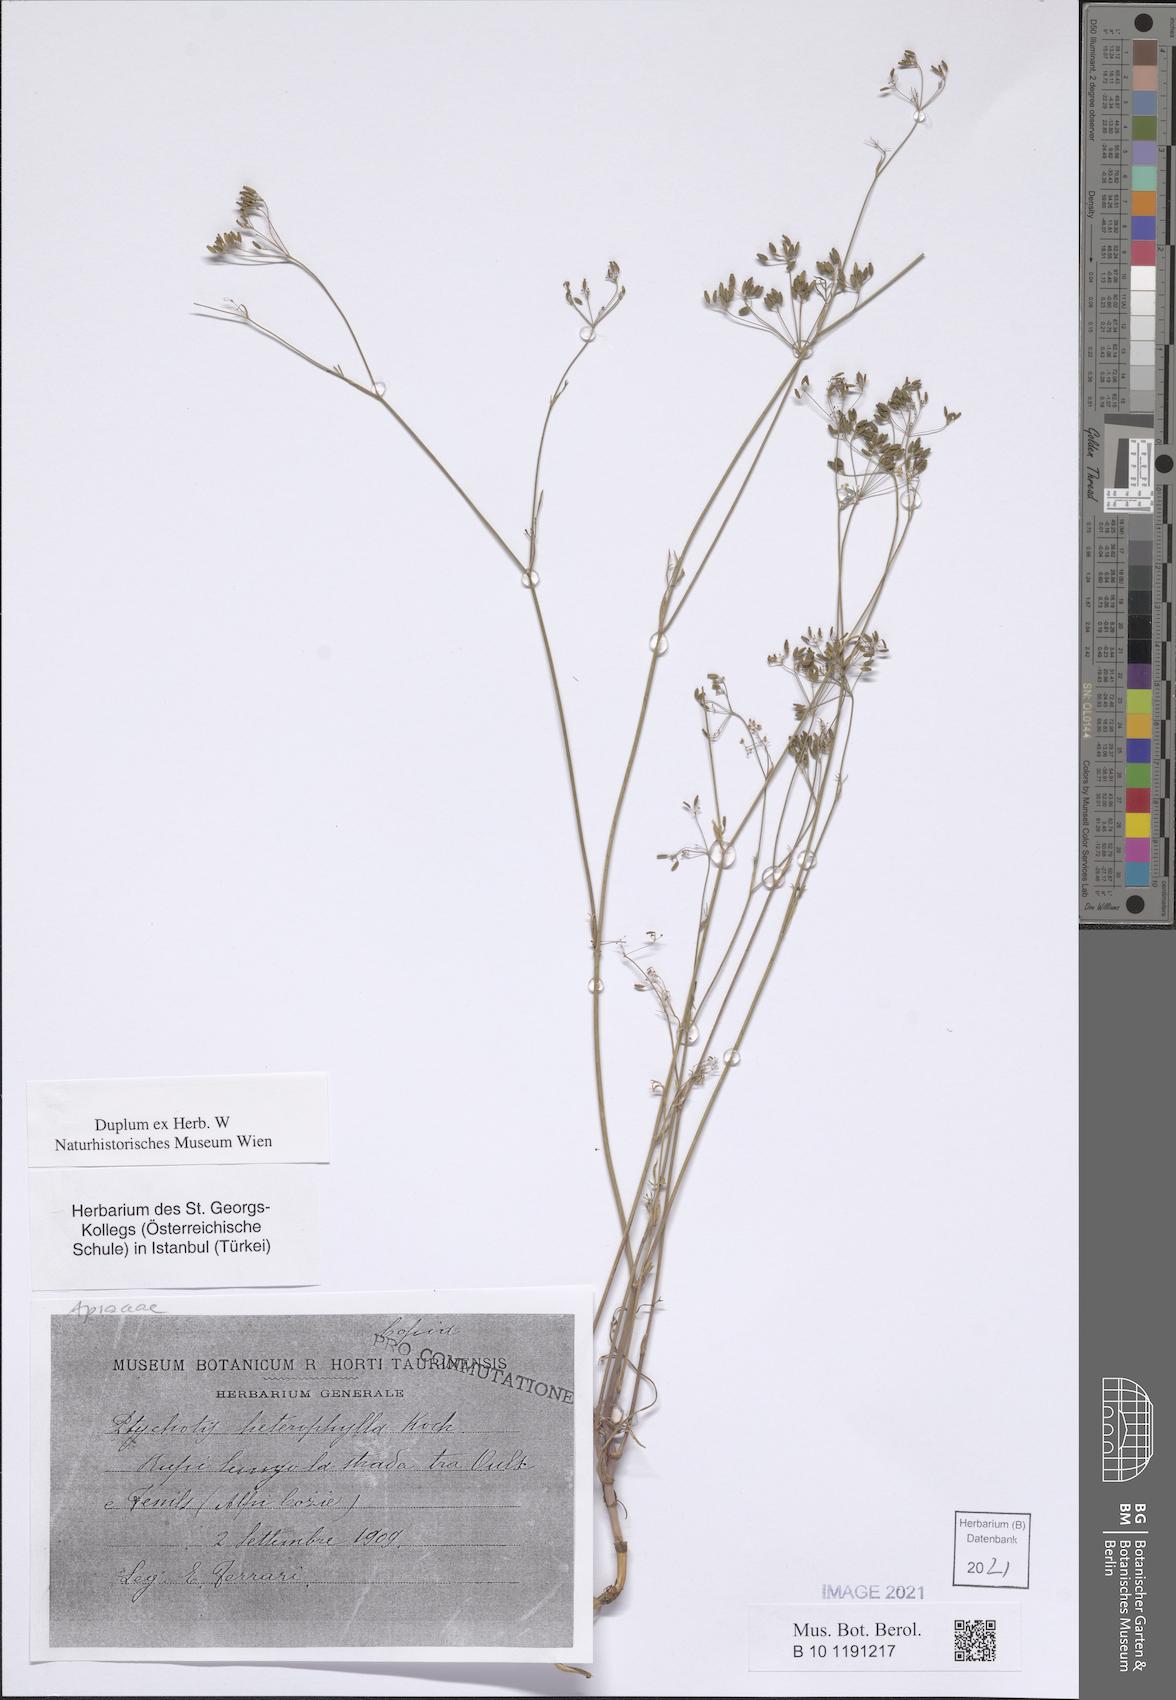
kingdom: Plantae
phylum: Tracheophyta
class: Magnoliopsida
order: Apiales
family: Apiaceae
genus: Ptychotis
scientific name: Ptychotis saxifraga
